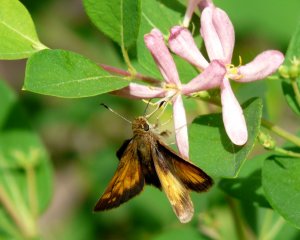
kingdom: Animalia
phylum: Arthropoda
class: Insecta
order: Lepidoptera
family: Hesperiidae
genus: Lon
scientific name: Lon hobomok
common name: Hobomok Skipper
